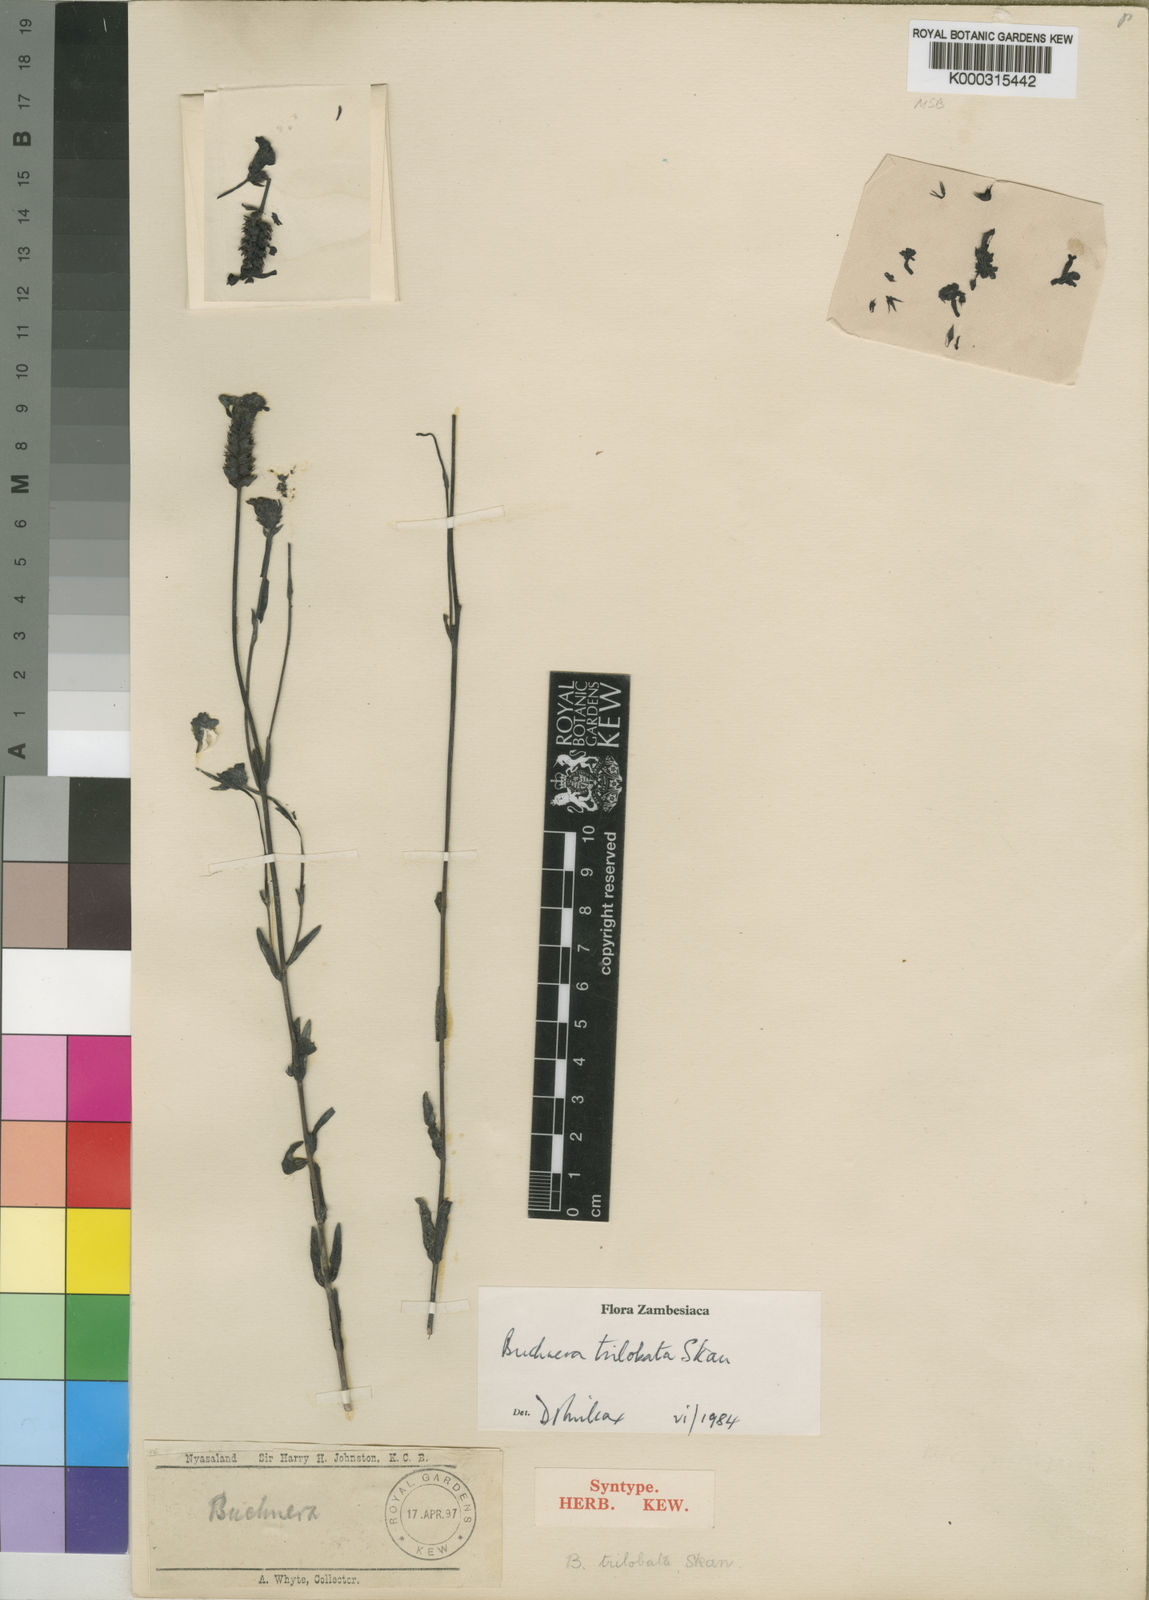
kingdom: Plantae
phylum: Tracheophyta
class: Magnoliopsida
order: Lamiales
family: Orobanchaceae
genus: Buchnera
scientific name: Buchnera trilobata
